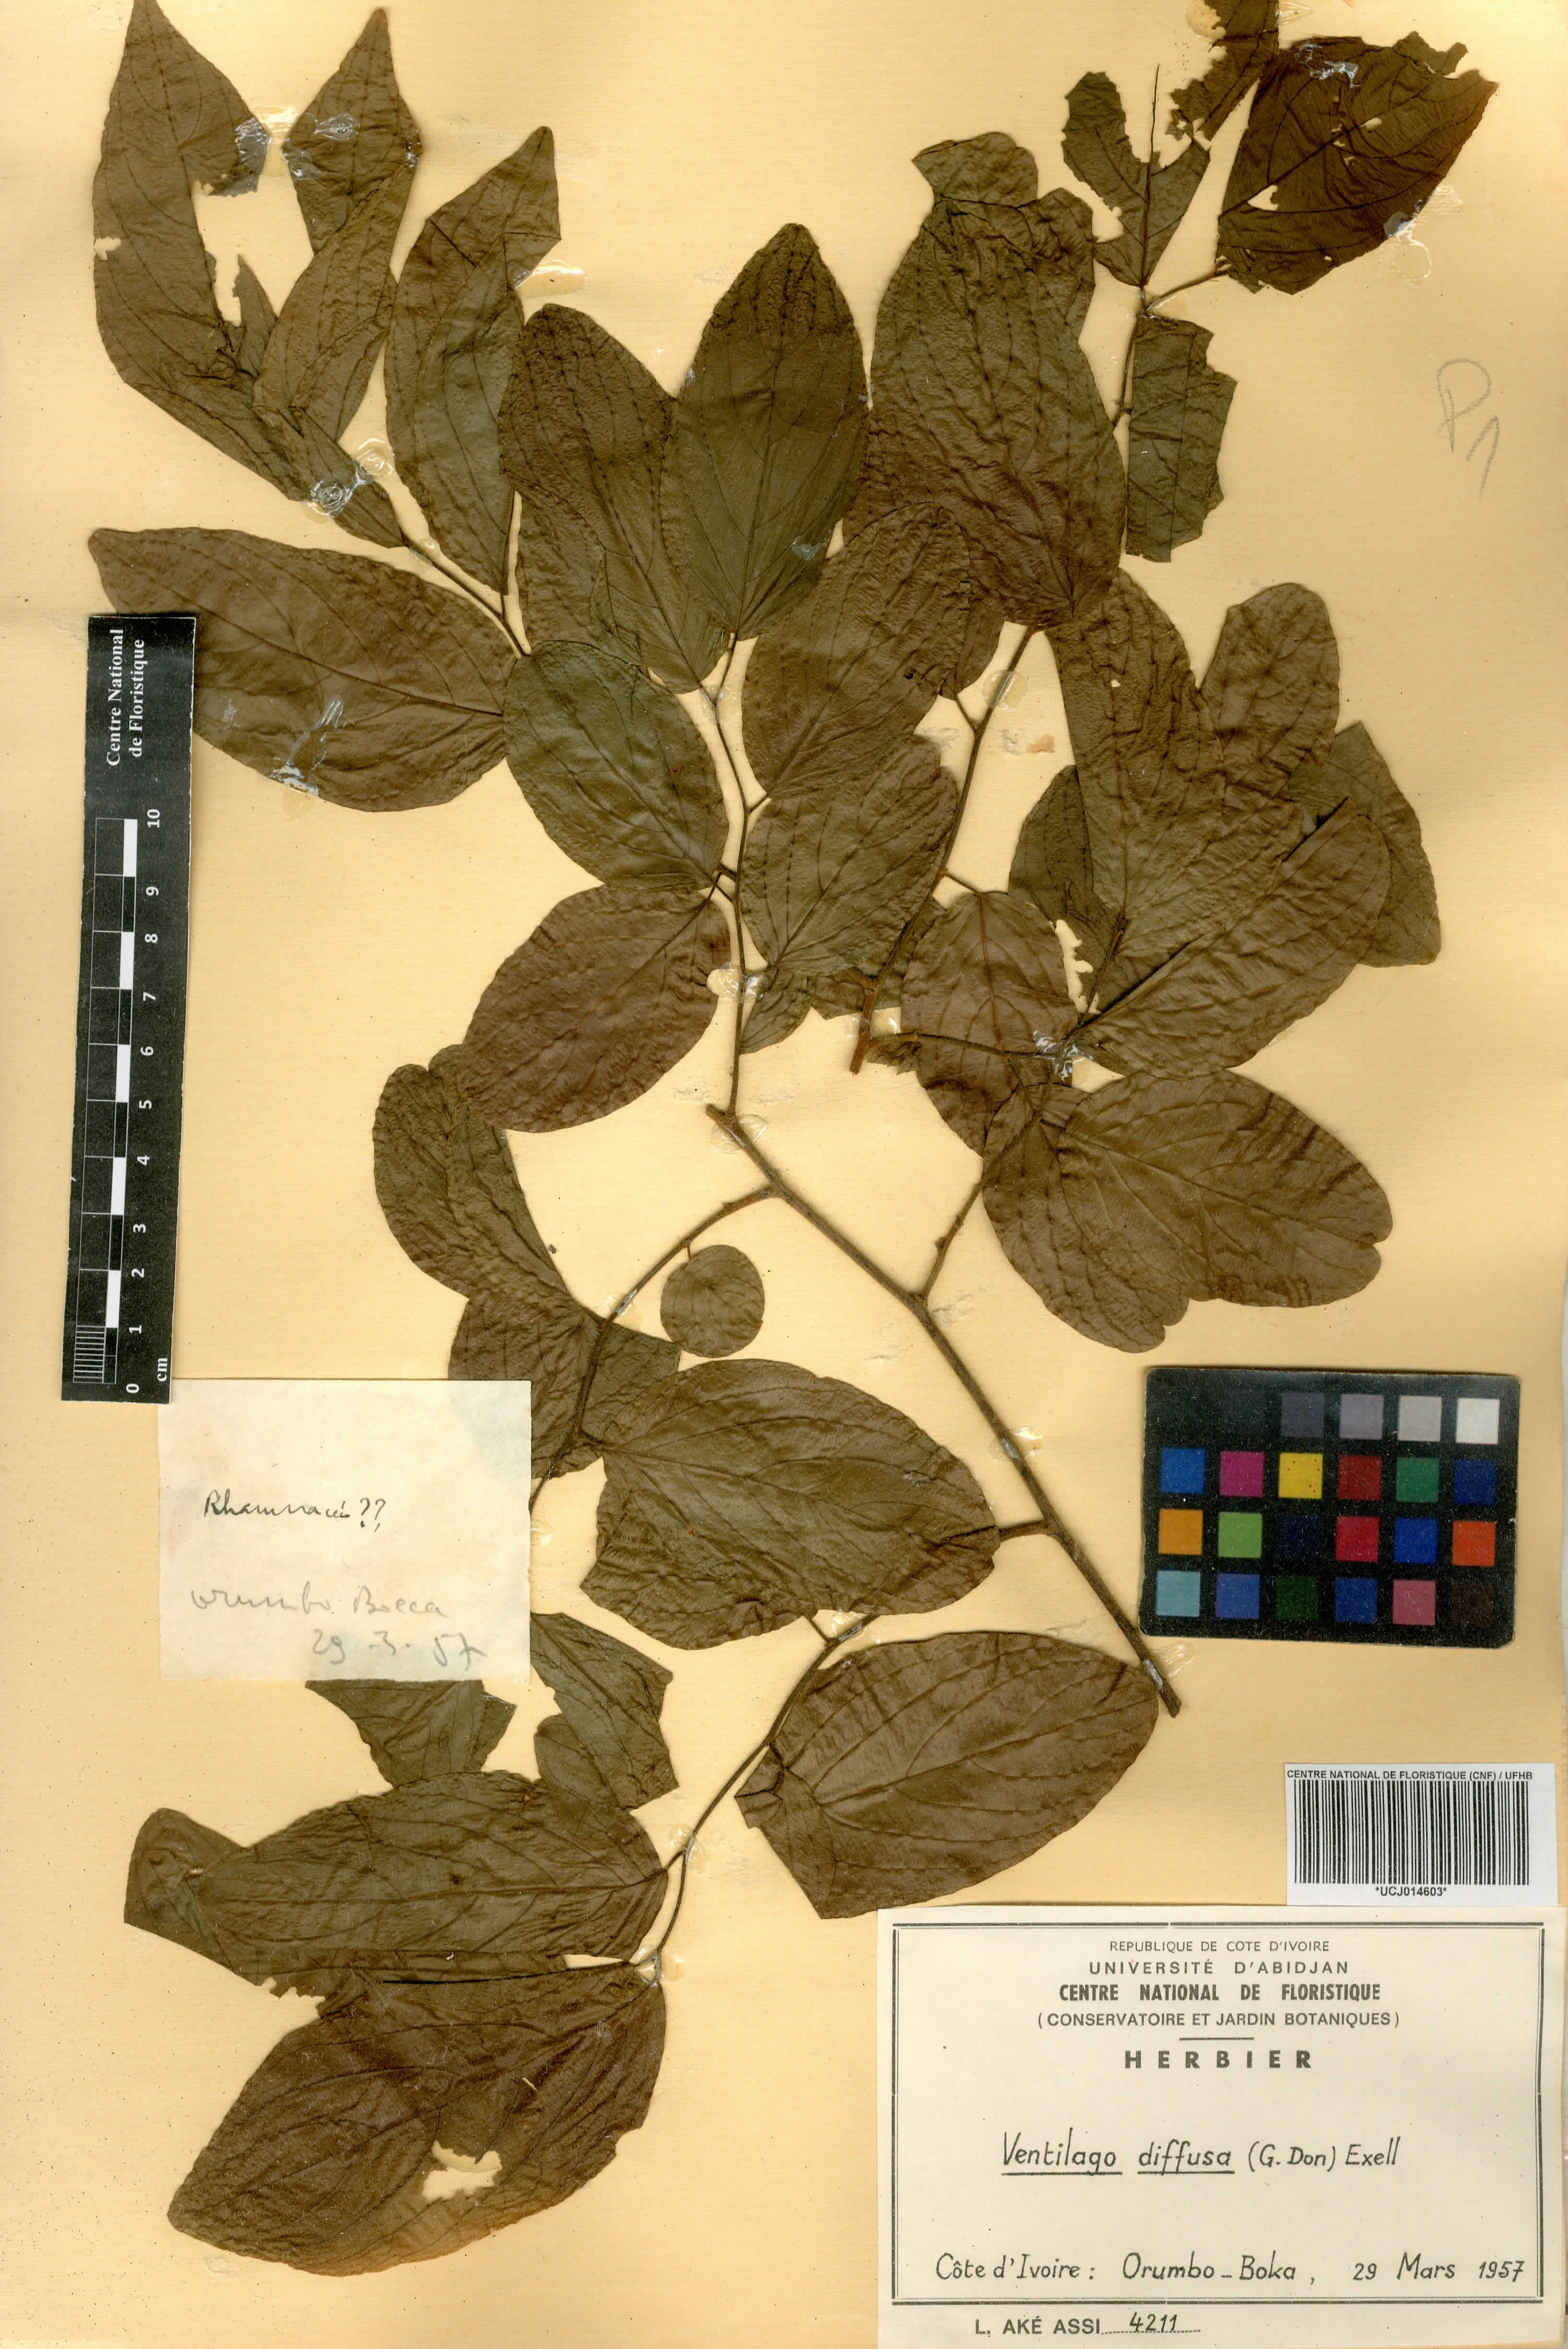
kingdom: Plantae
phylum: Tracheophyta
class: Magnoliopsida
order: Rosales
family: Rhamnaceae
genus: Ventilago
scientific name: Ventilago diffusa
